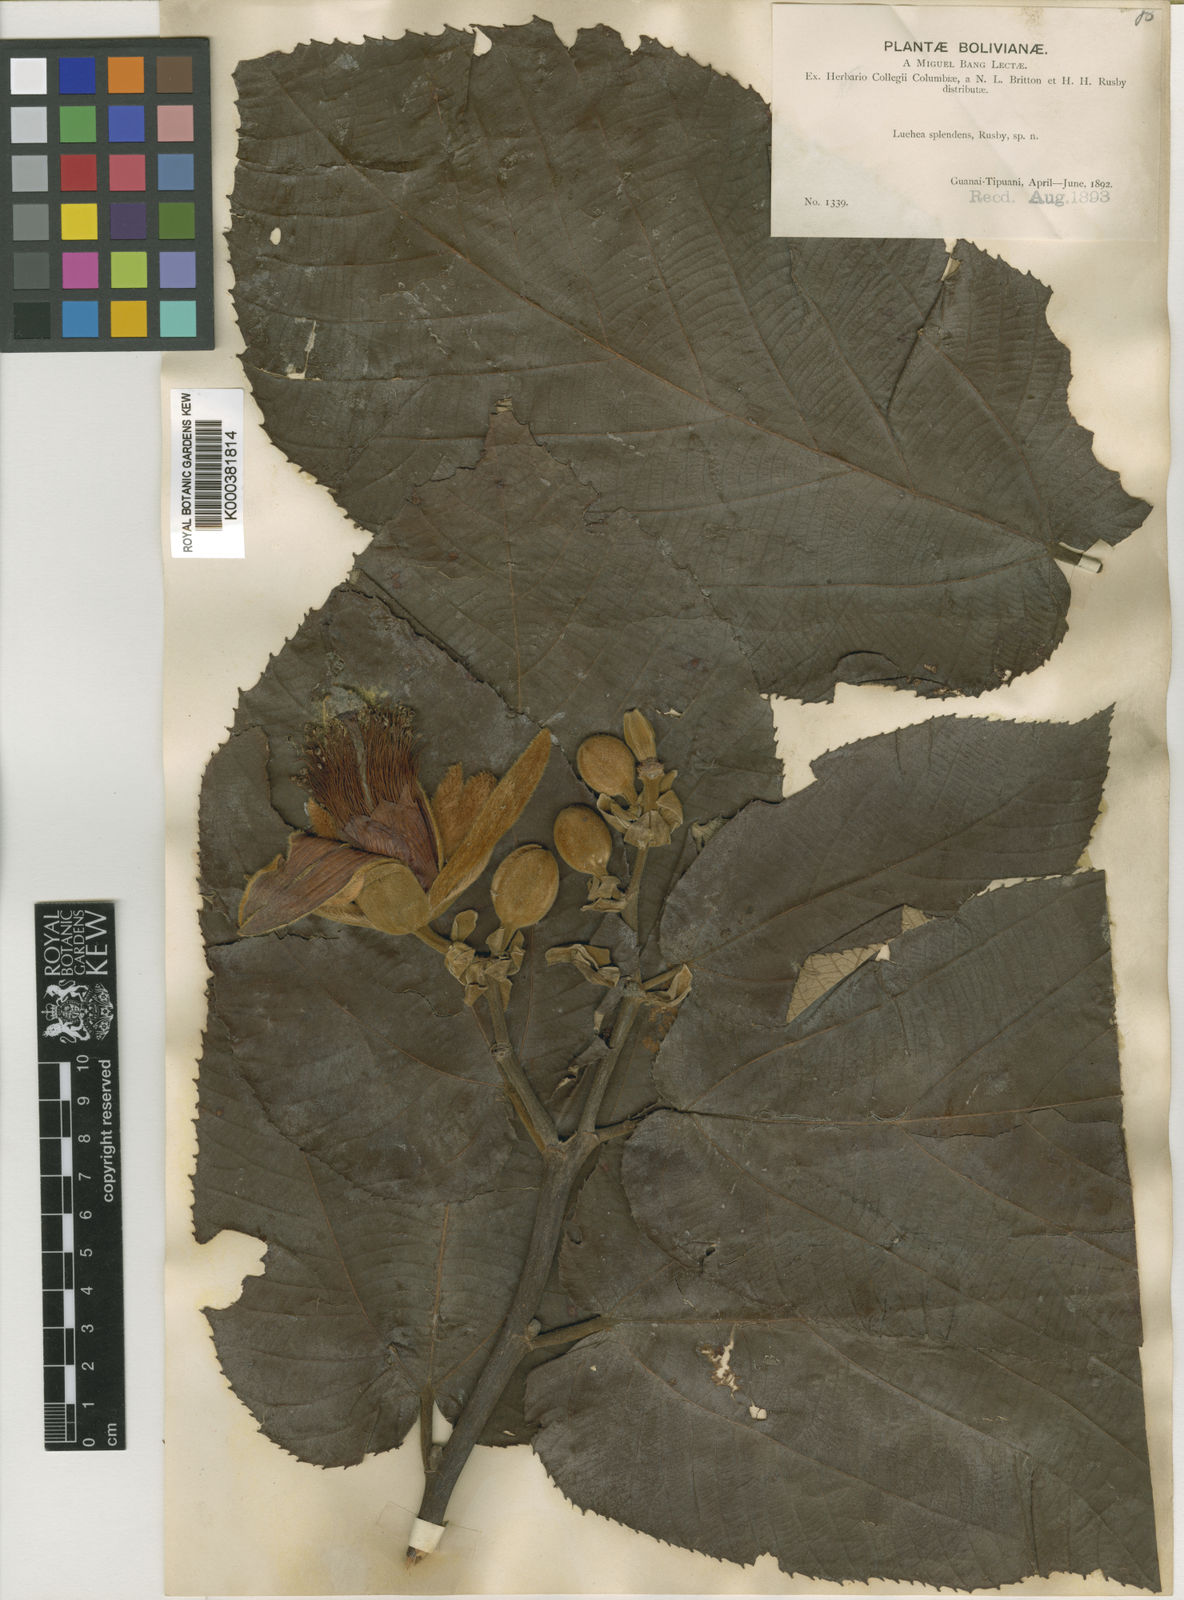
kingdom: Plantae
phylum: Tracheophyta
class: Magnoliopsida
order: Malvales
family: Malvaceae
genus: Luehea
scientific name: Luehea splendens
